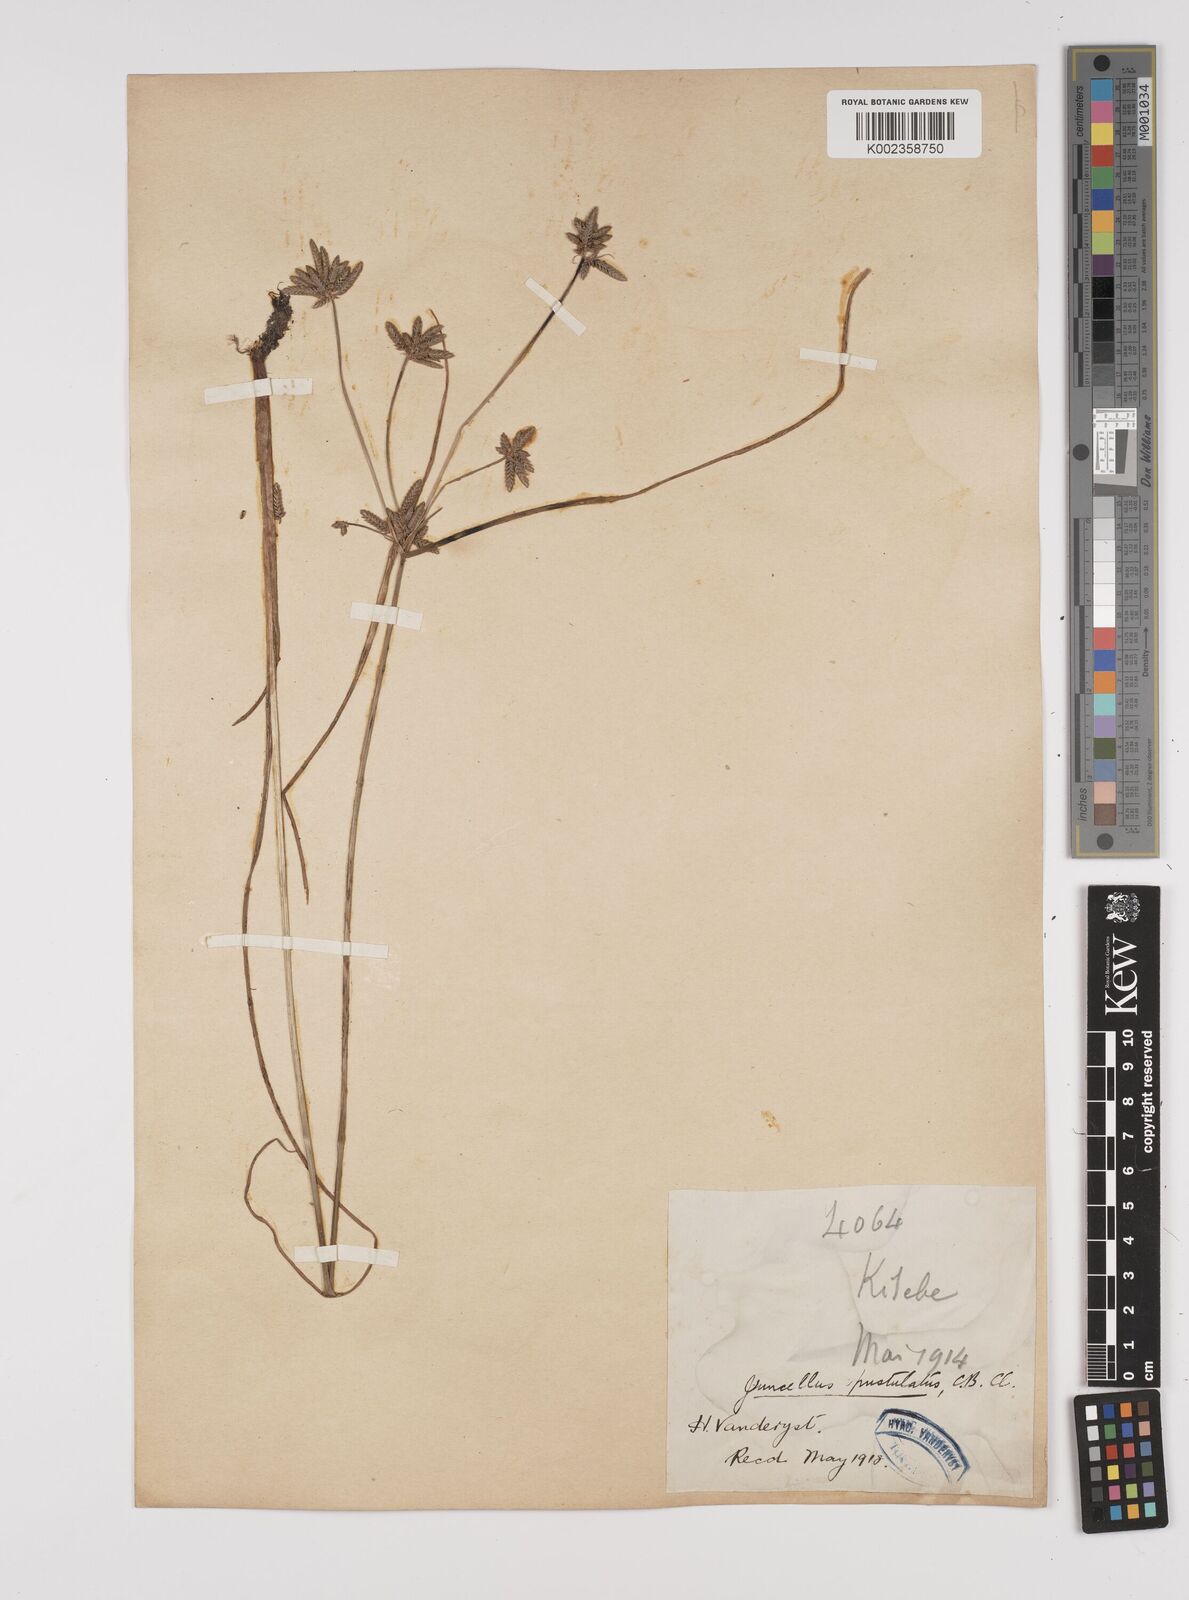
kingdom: Plantae
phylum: Tracheophyta
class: Liliopsida
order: Poales
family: Cyperaceae
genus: Cyperus
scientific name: Cyperus pustulatus
